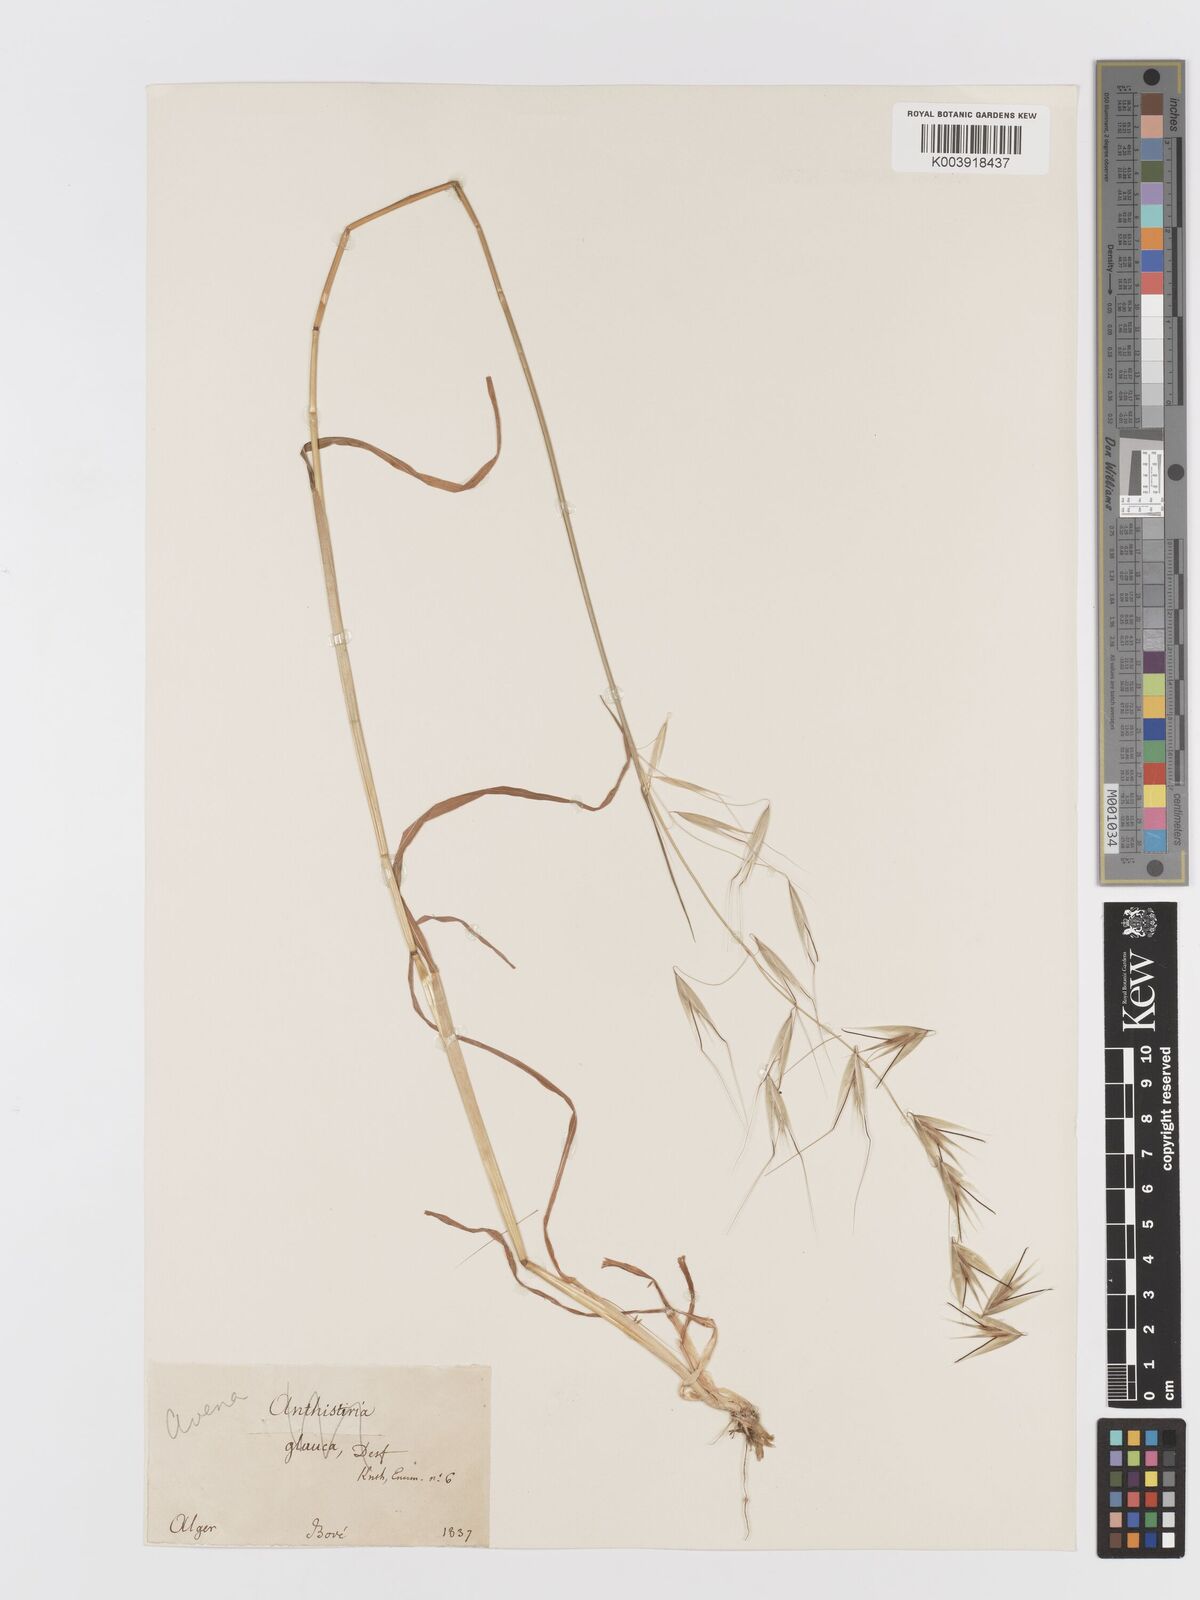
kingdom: Plantae
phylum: Tracheophyta
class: Liliopsida
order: Poales
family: Poaceae
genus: Avena
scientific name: Avena
